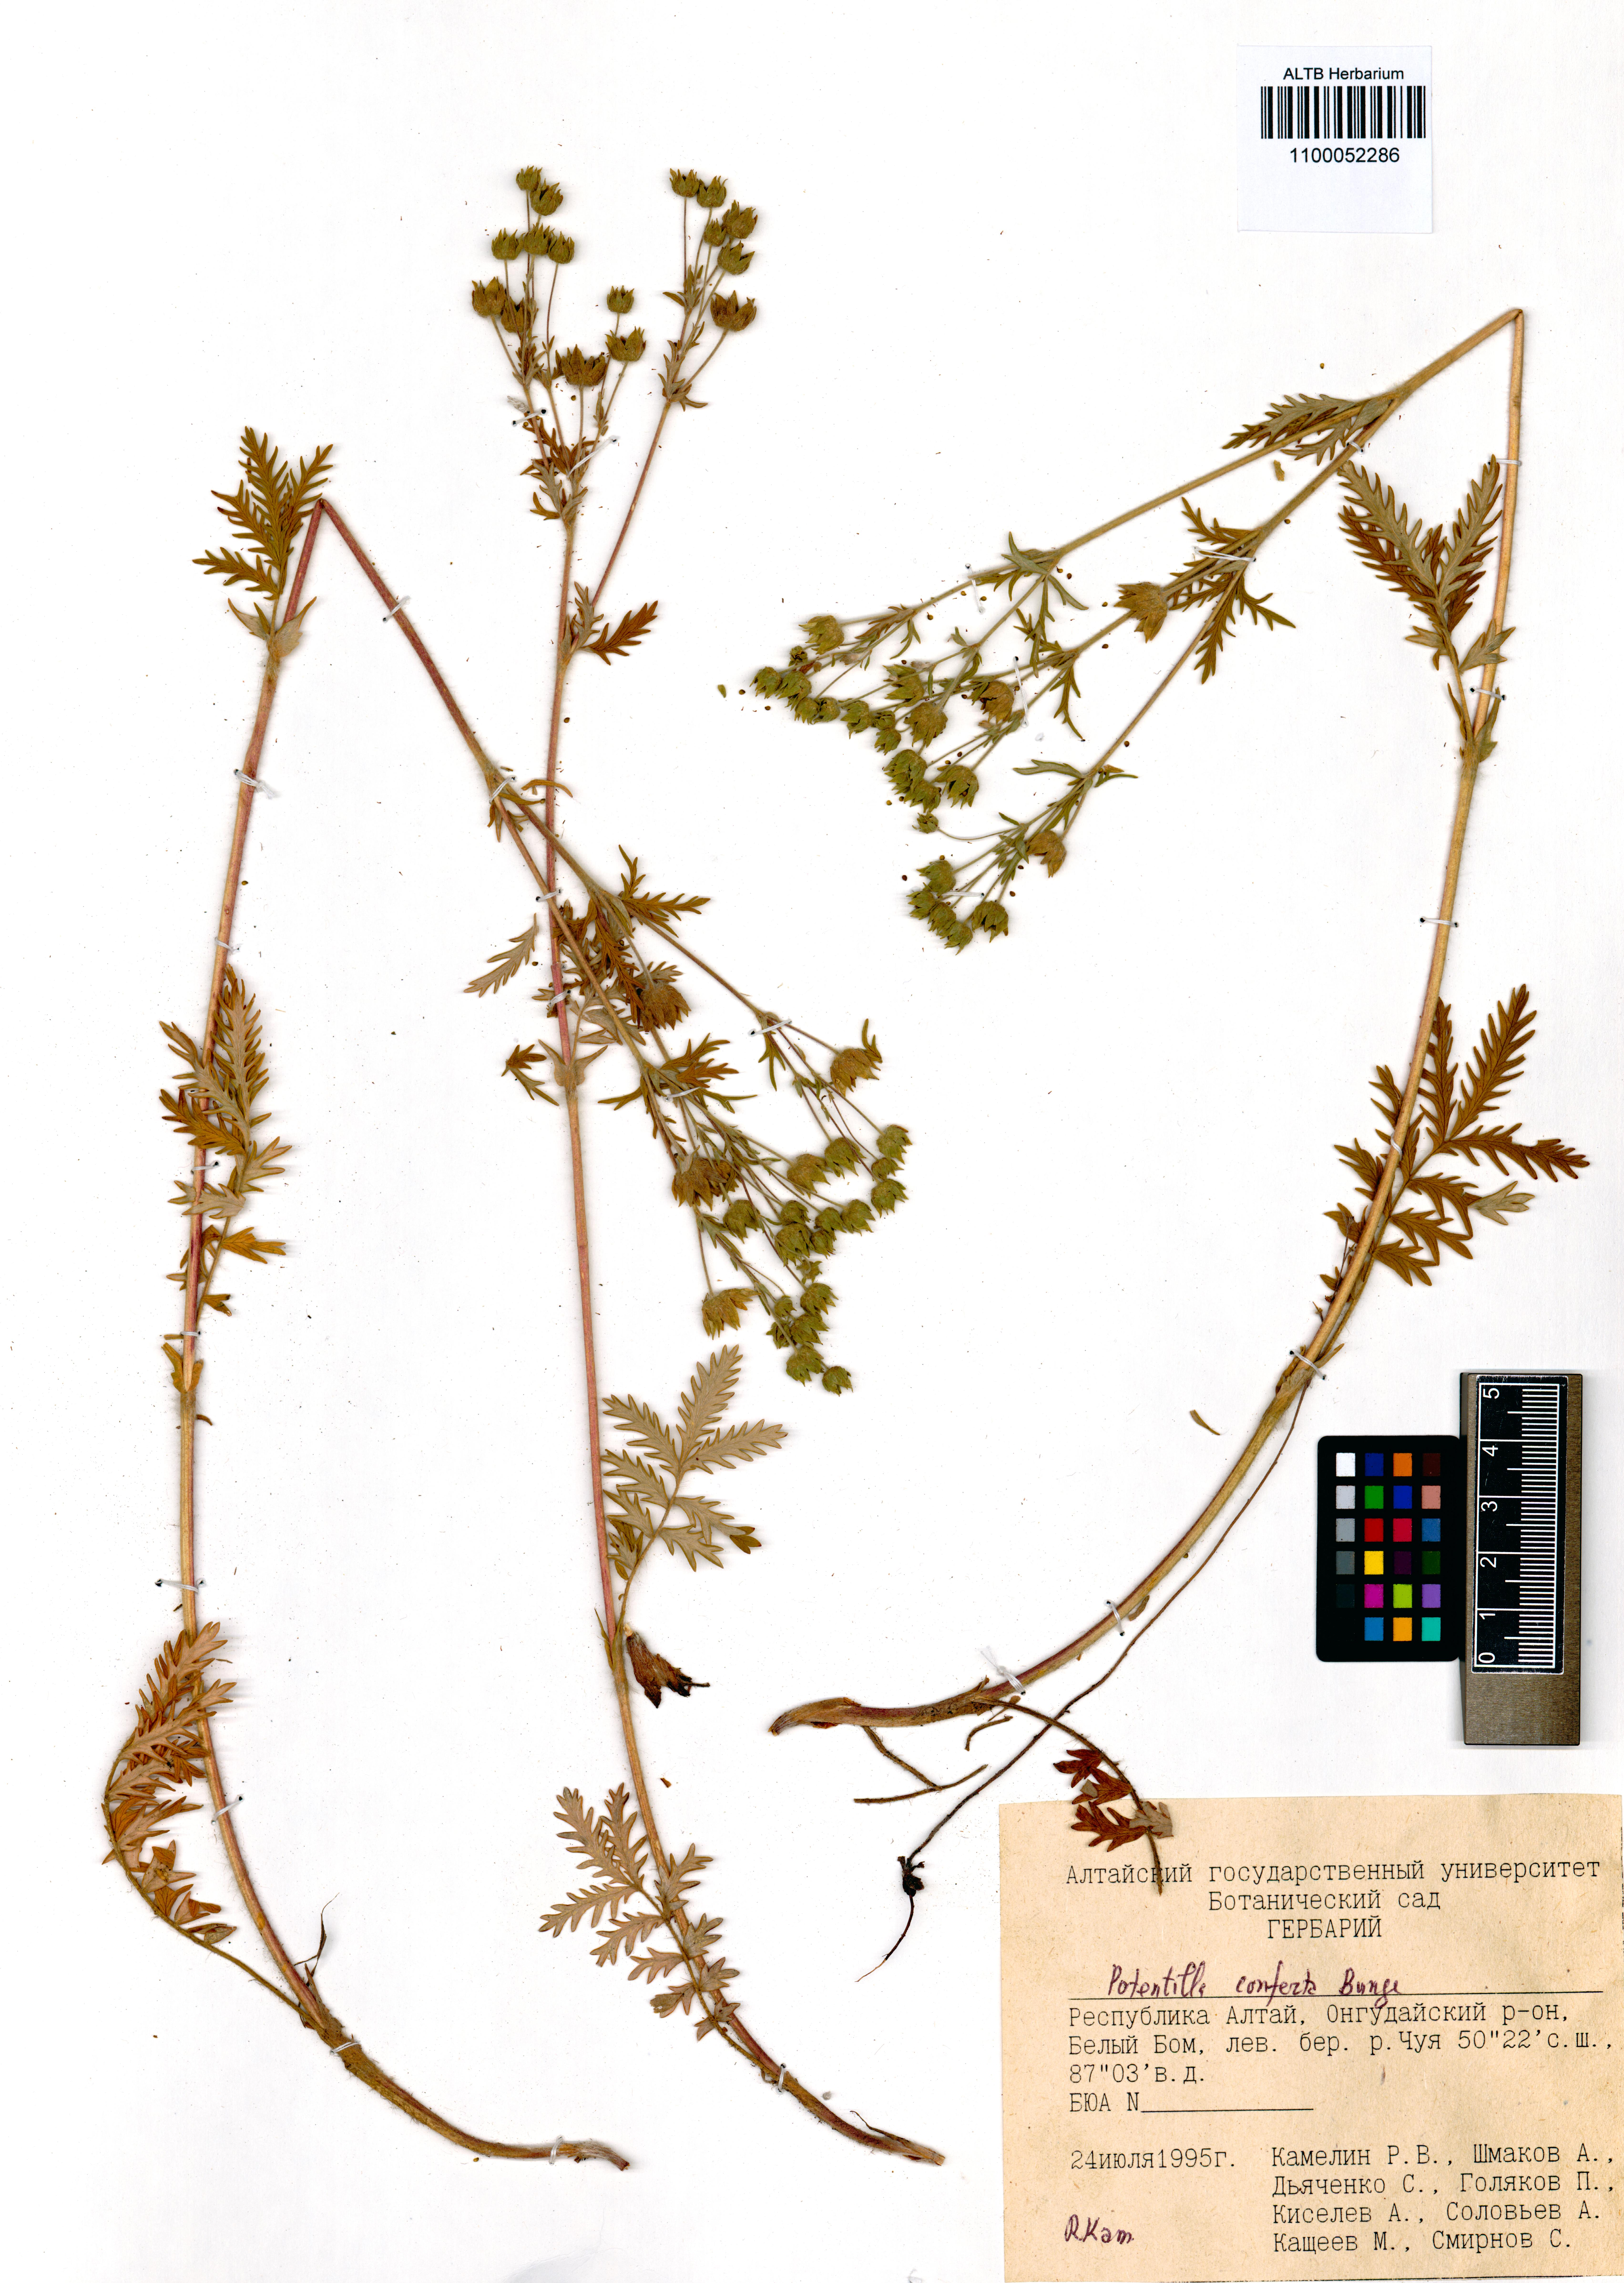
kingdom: Plantae
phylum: Tracheophyta
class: Magnoliopsida
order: Rosales
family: Rosaceae
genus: Potentilla
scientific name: Potentilla conferta
